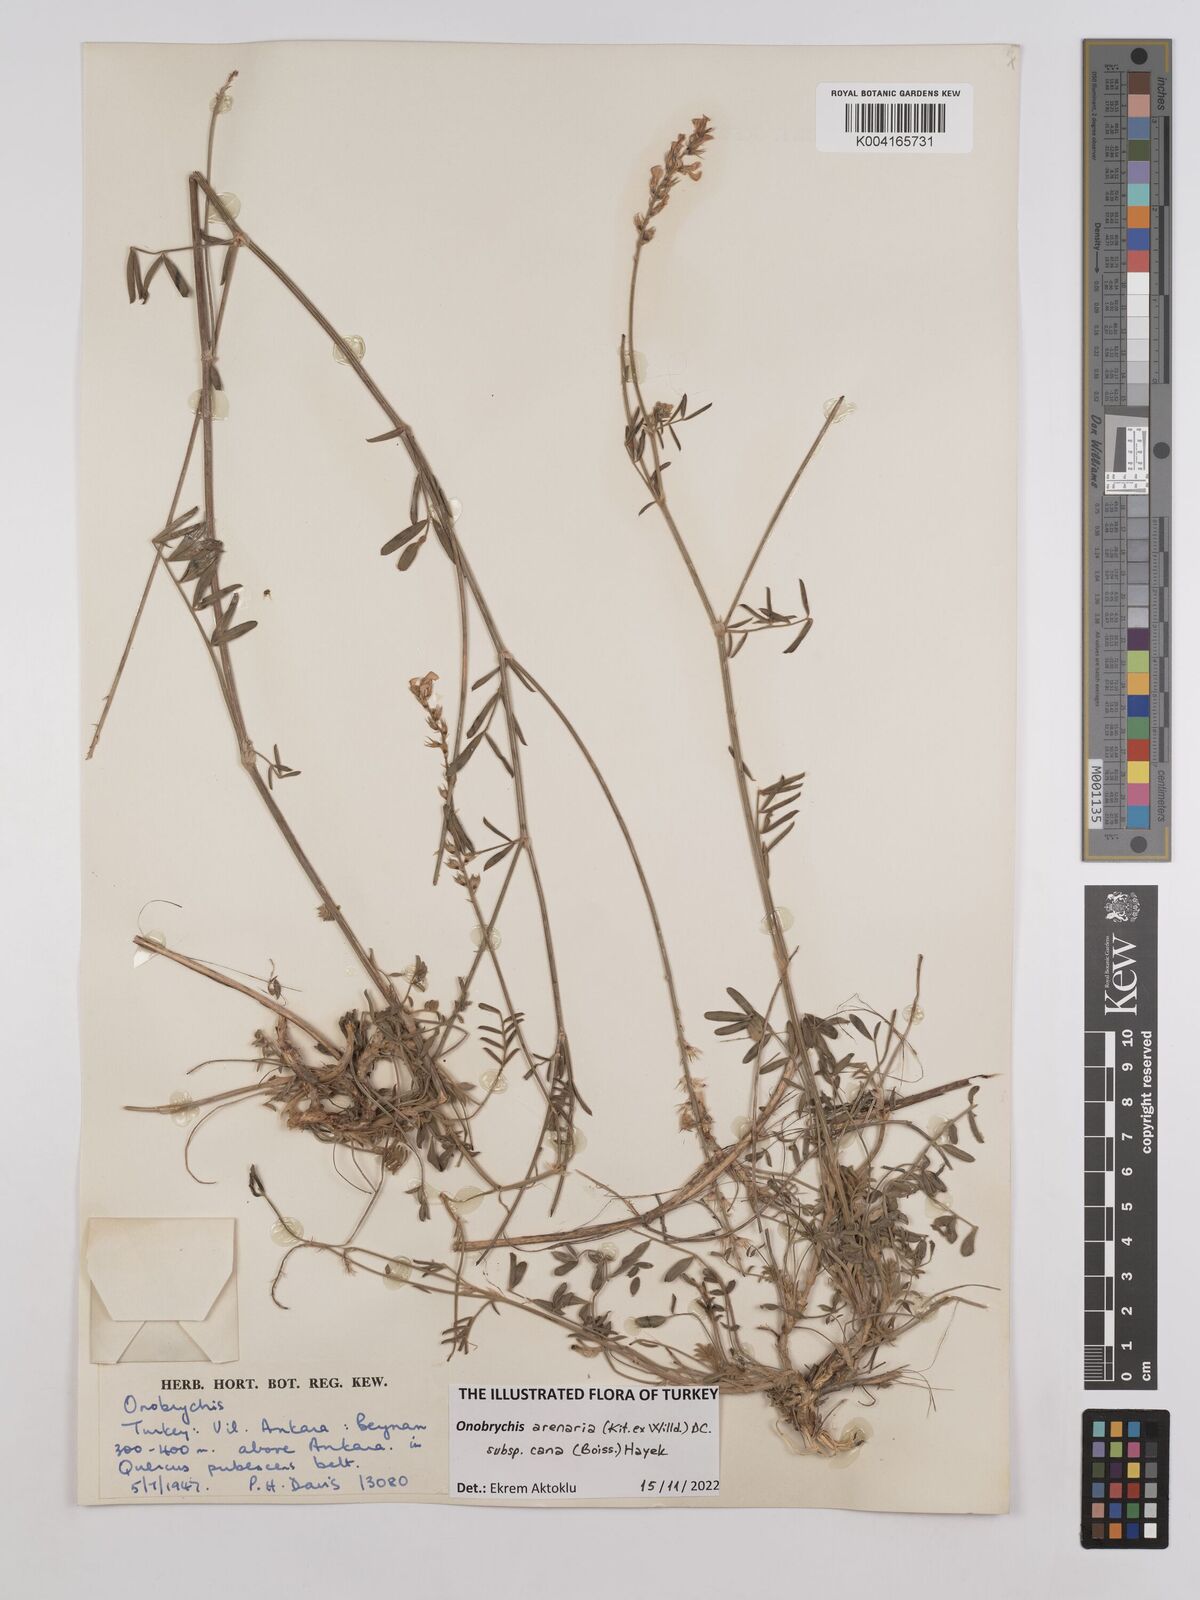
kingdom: Plantae
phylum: Tracheophyta
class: Magnoliopsida
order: Fabales
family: Fabaceae
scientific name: Fabaceae
